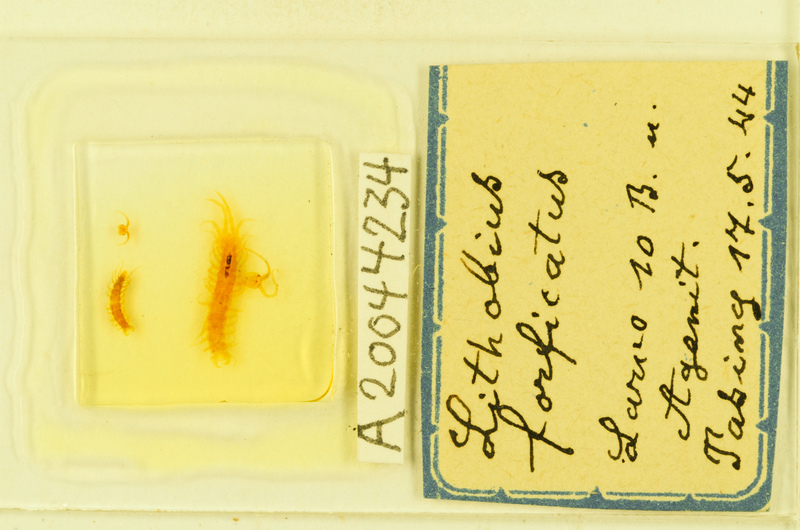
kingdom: Animalia
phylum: Arthropoda
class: Chilopoda
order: Lithobiomorpha
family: Lithobiidae
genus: Lithobius
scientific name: Lithobius forficatus
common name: Centipede
